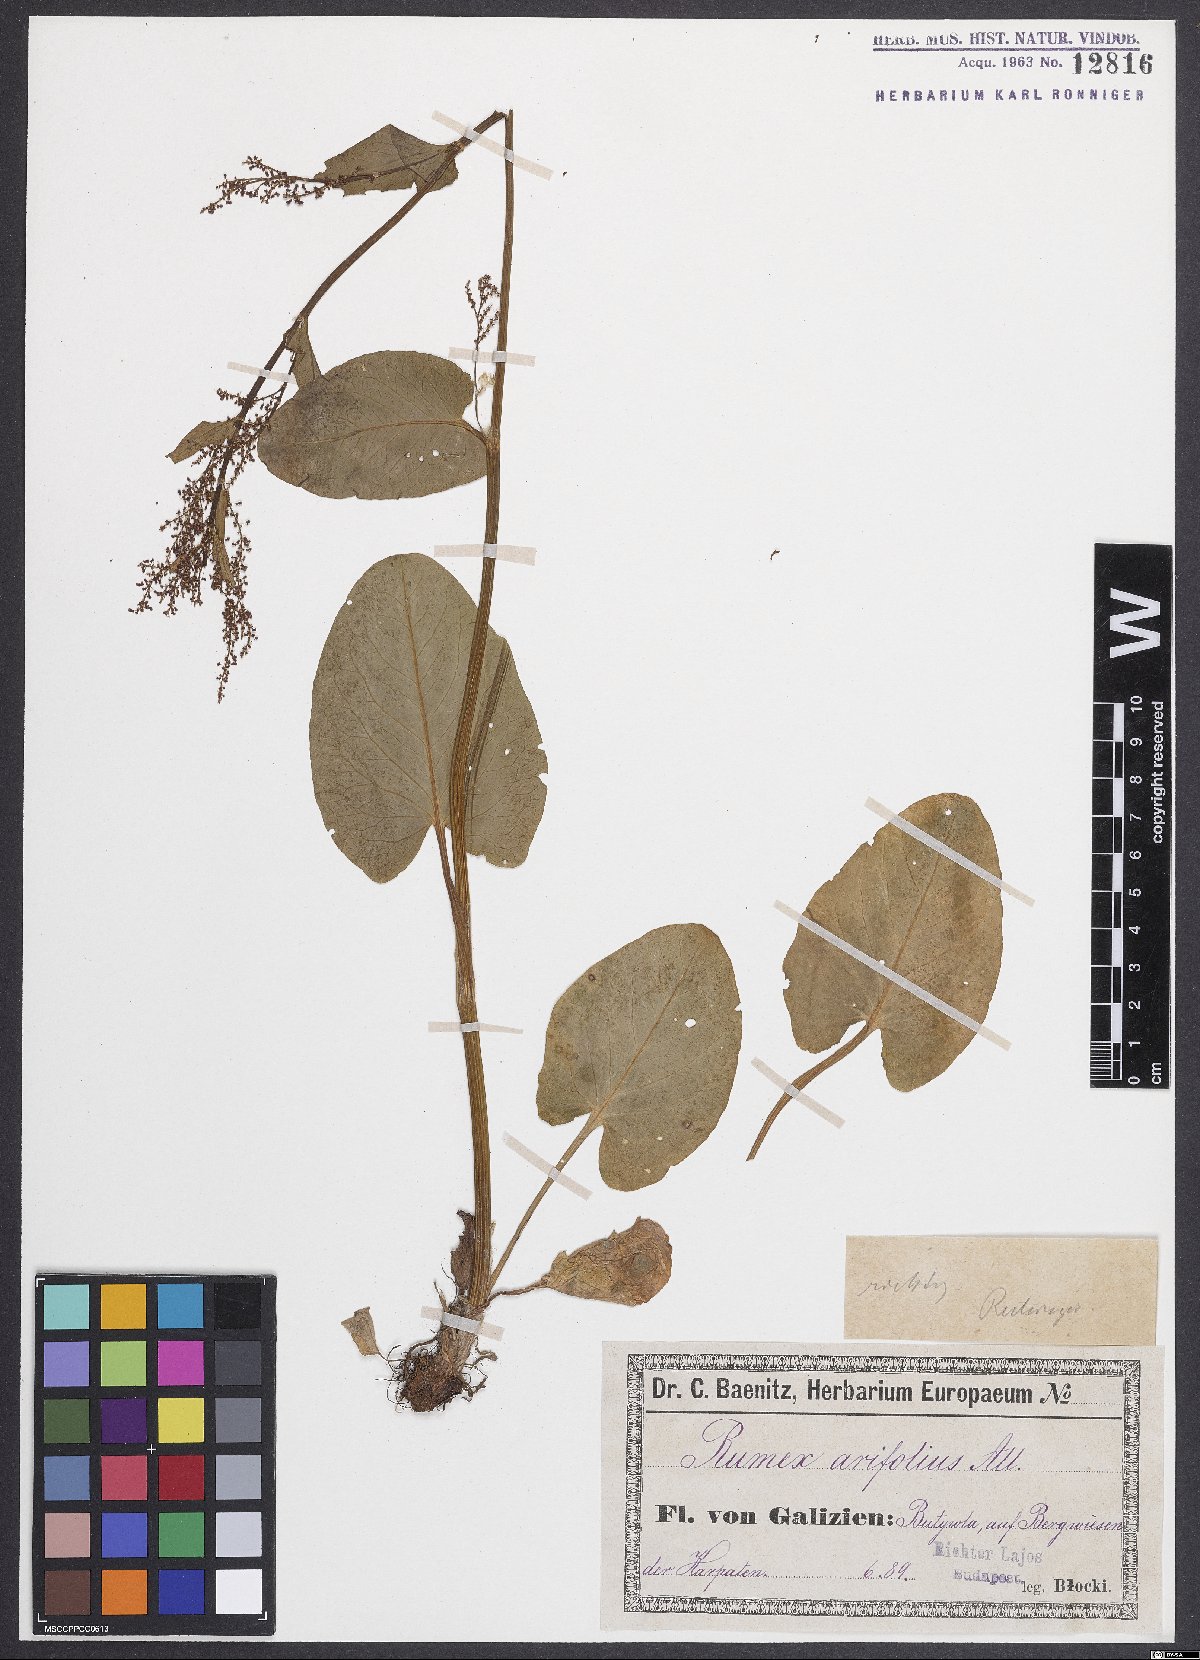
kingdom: Plantae
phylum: Tracheophyta
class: Magnoliopsida
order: Caryophyllales
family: Polygonaceae
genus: Rumex
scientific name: Rumex arifolius
